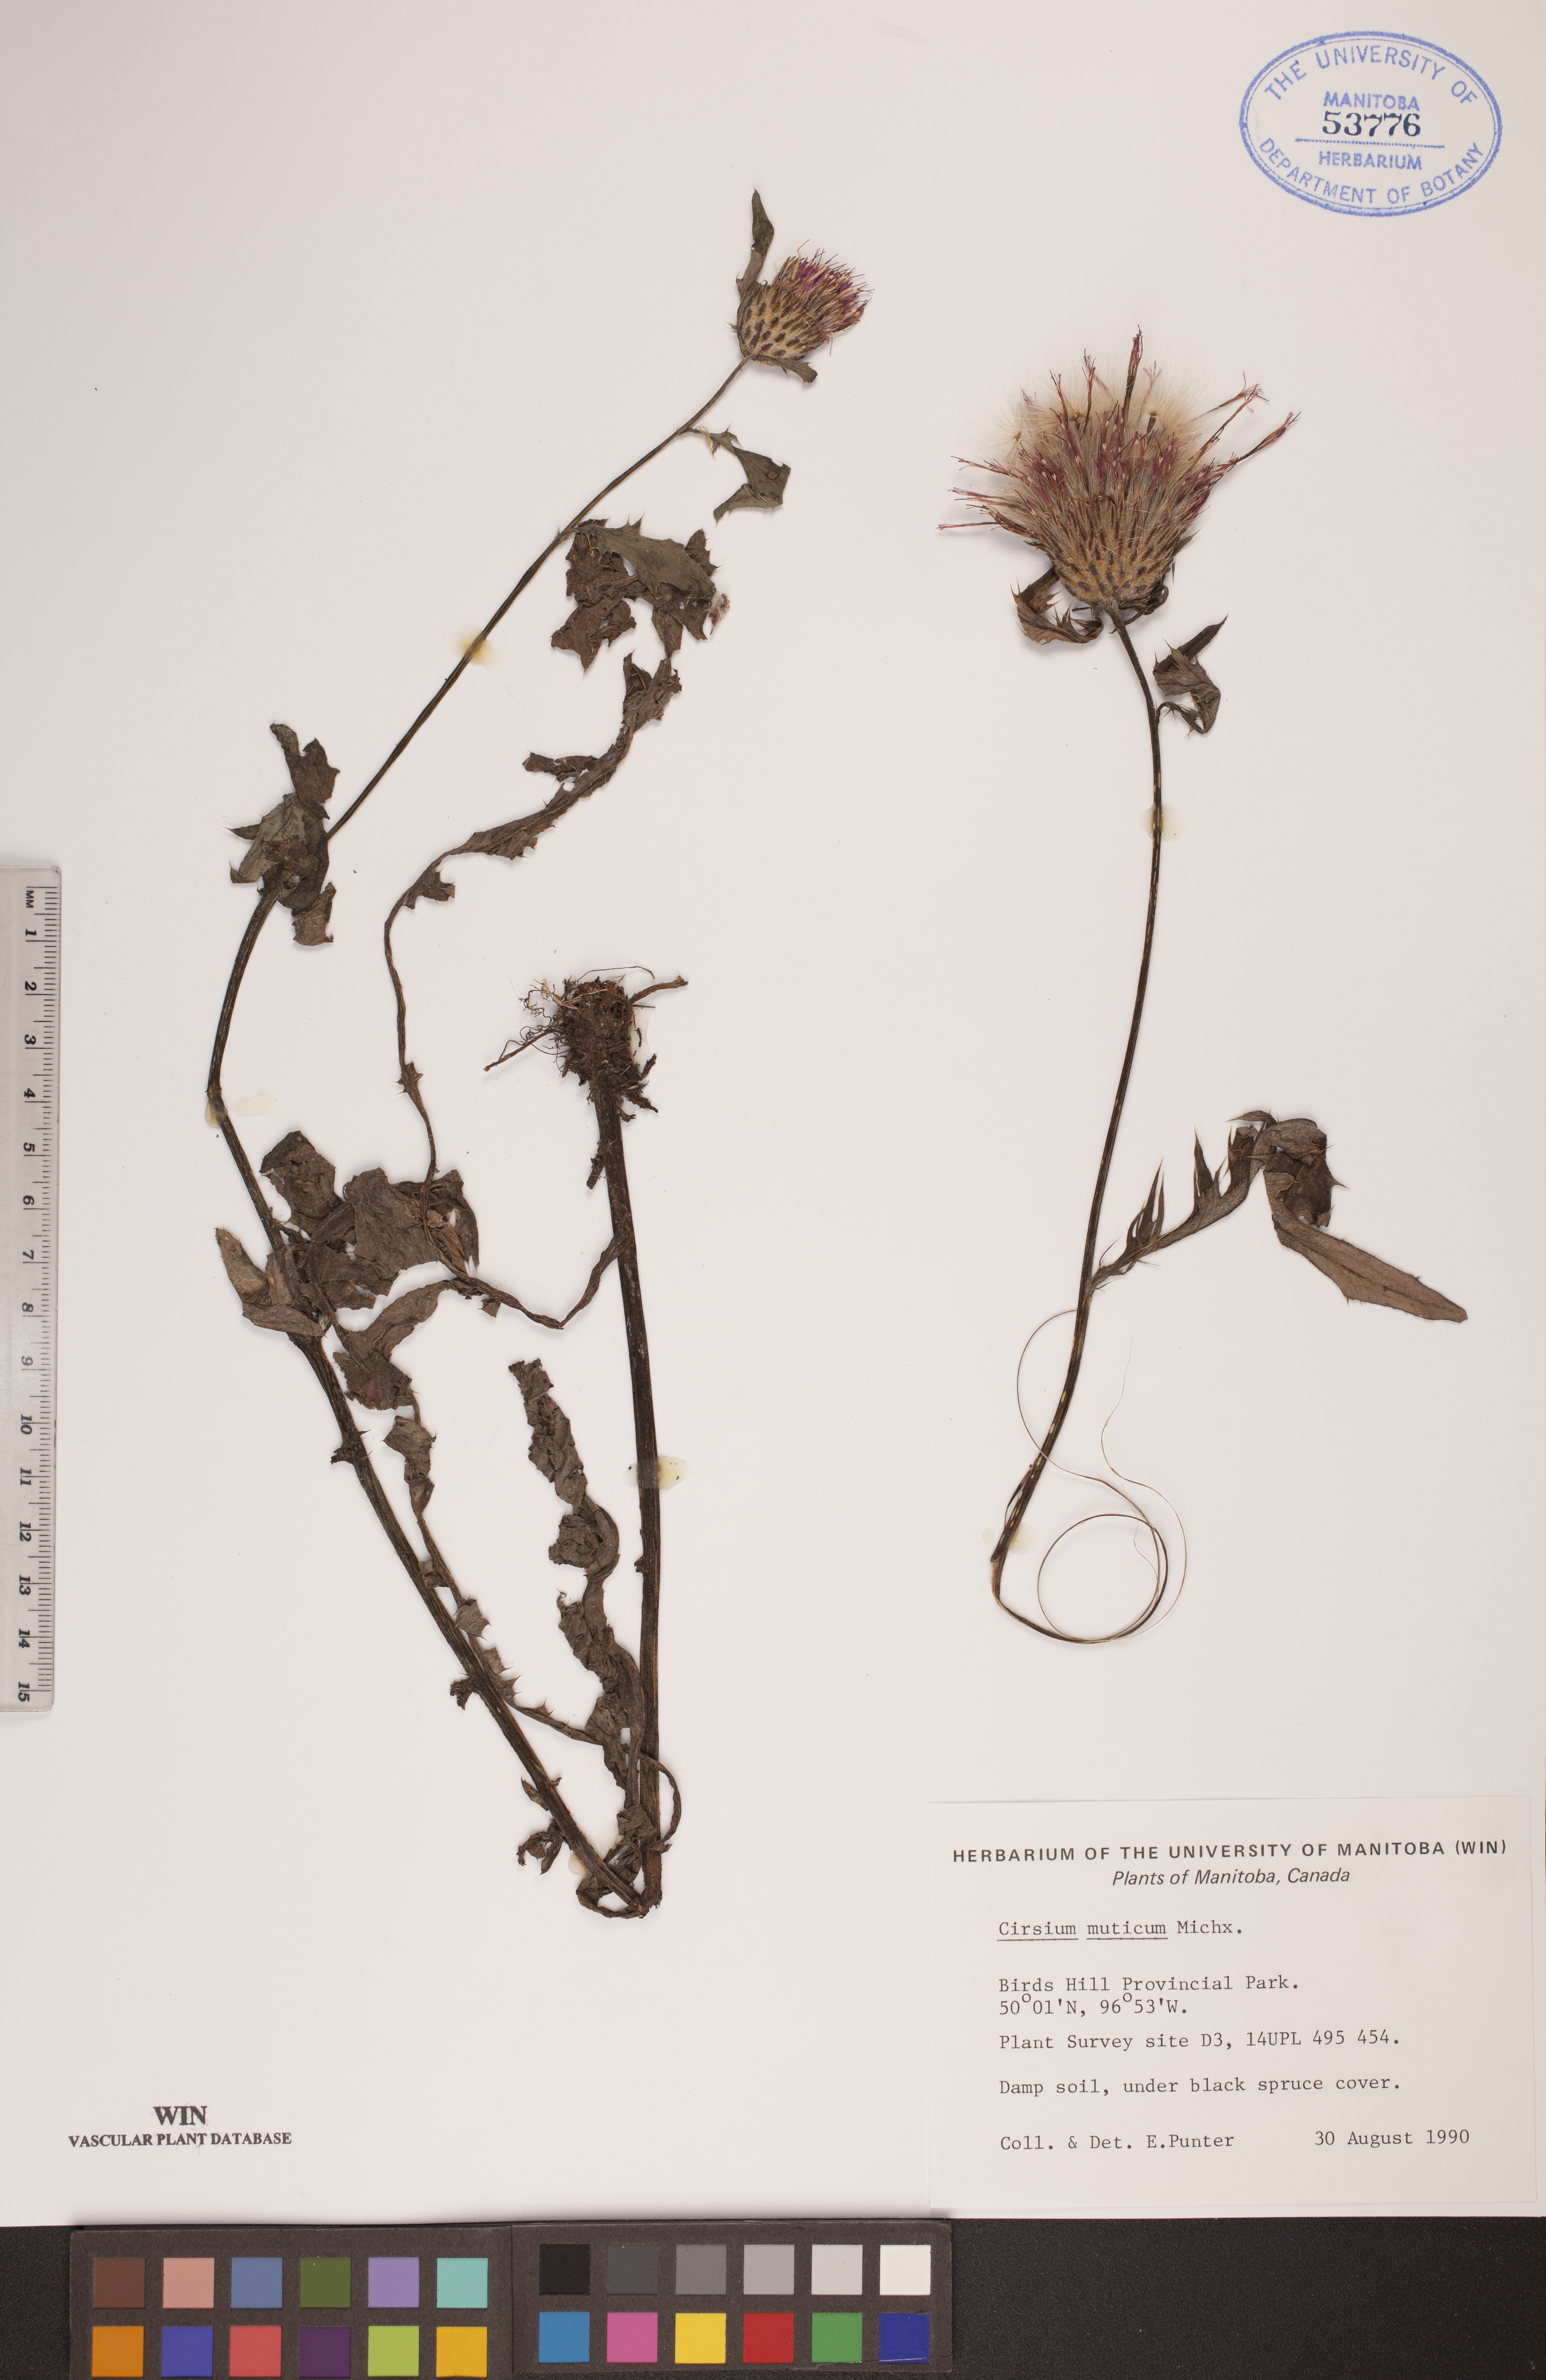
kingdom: Plantae
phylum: Tracheophyta
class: Magnoliopsida
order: Asterales
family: Asteraceae
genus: Cirsium
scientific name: Cirsium muticum
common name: Dunce-nettle
